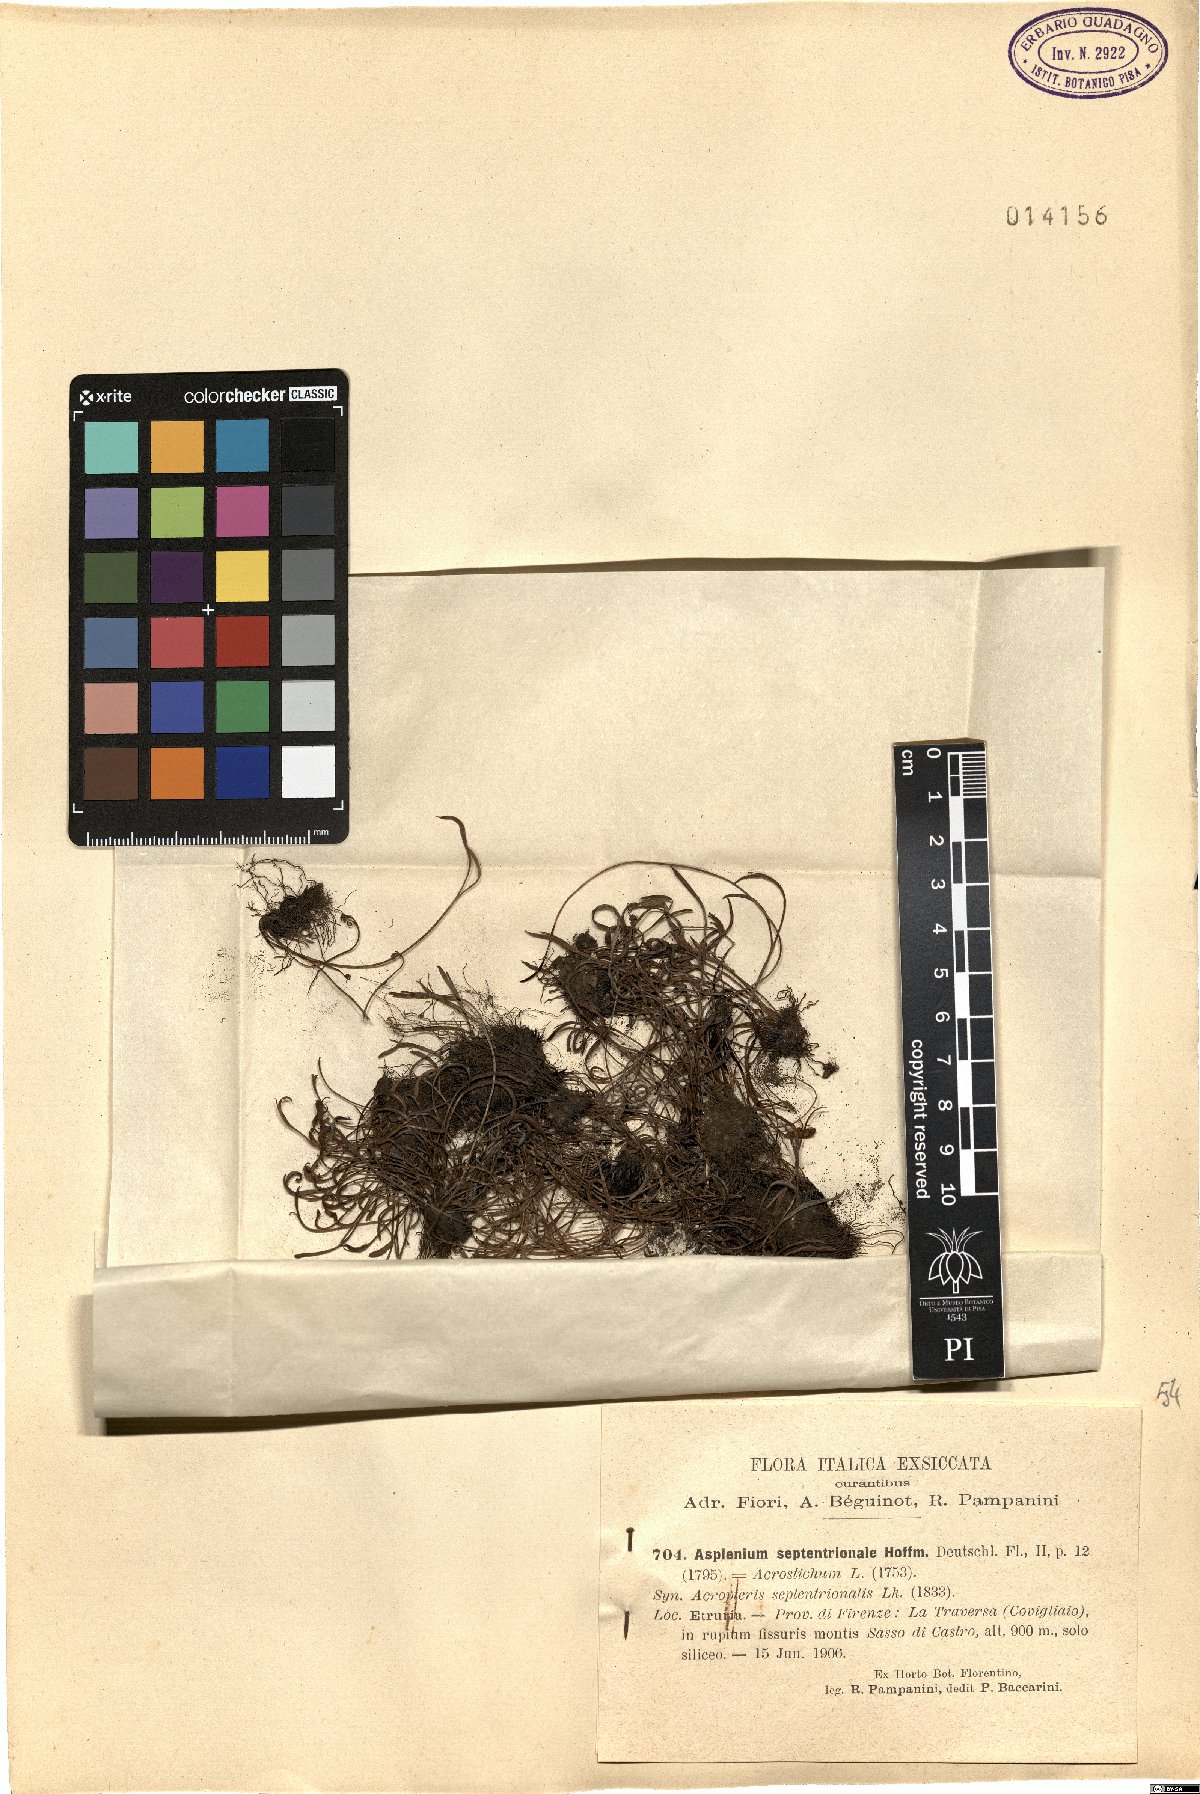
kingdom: Plantae
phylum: Tracheophyta
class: Polypodiopsida
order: Polypodiales
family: Aspleniaceae
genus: Asplenium
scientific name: Asplenium septentrionale
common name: Forked spleenwort
